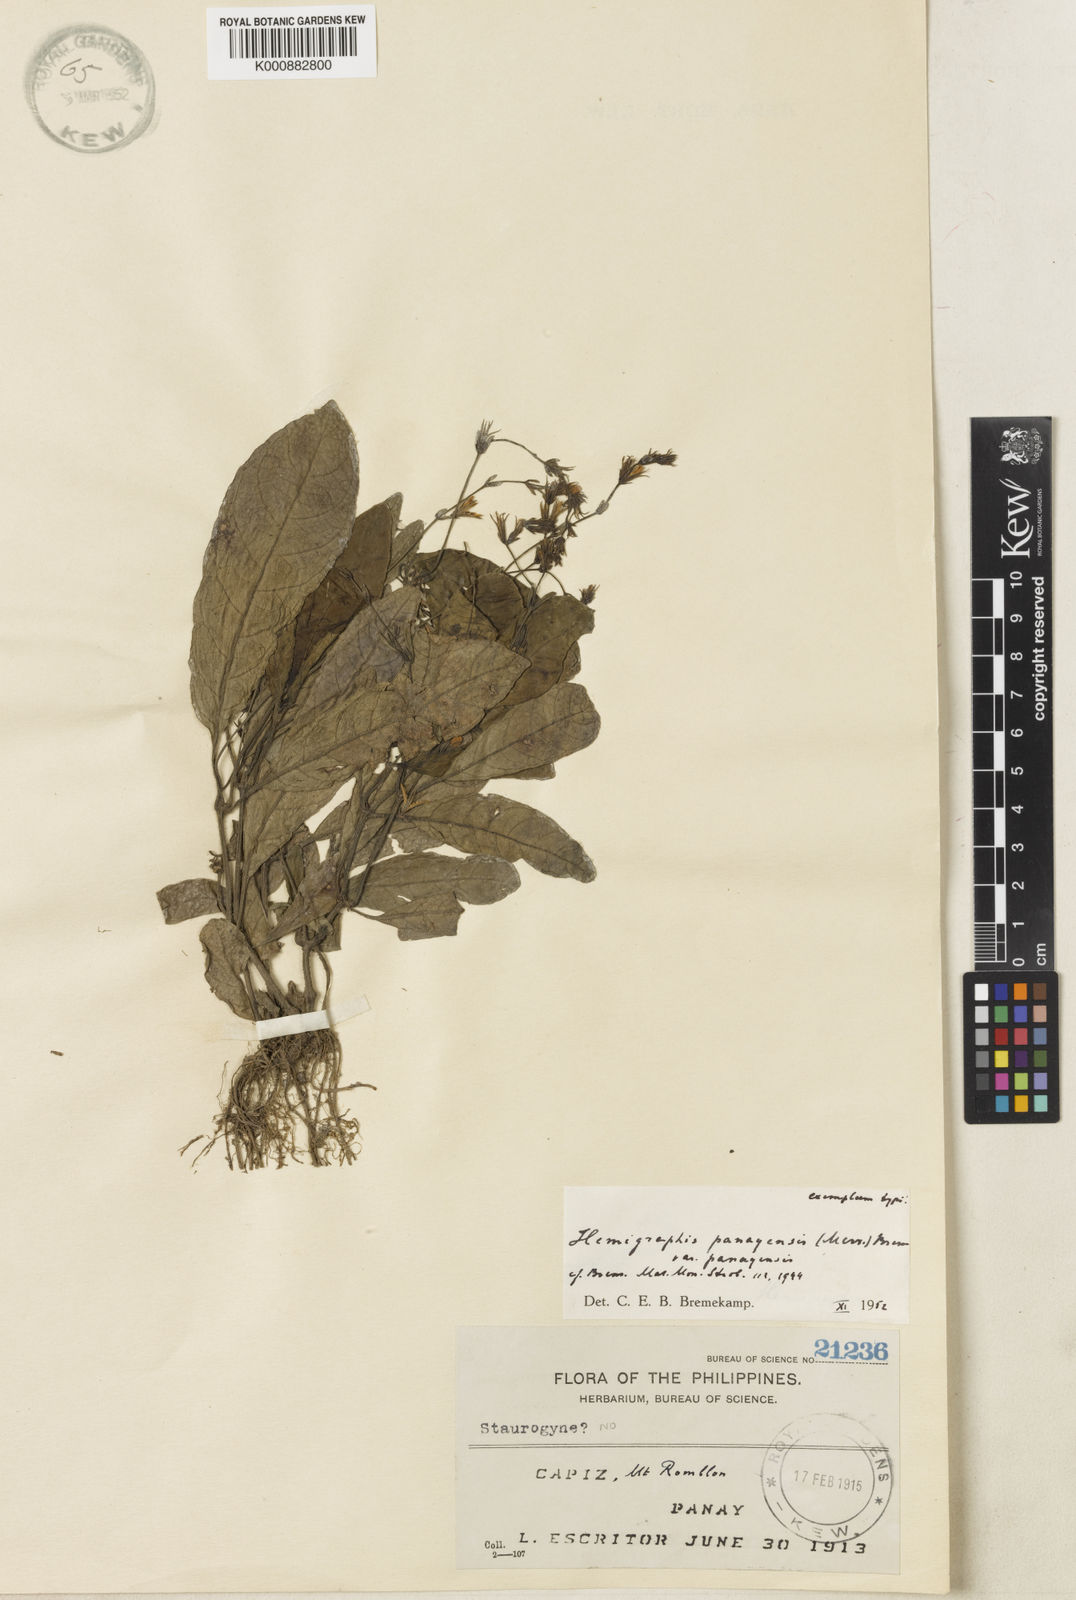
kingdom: Plantae
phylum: Tracheophyta
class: Magnoliopsida
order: Lamiales
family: Acanthaceae
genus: Strobilanthes
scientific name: Strobilanthes bakeri
